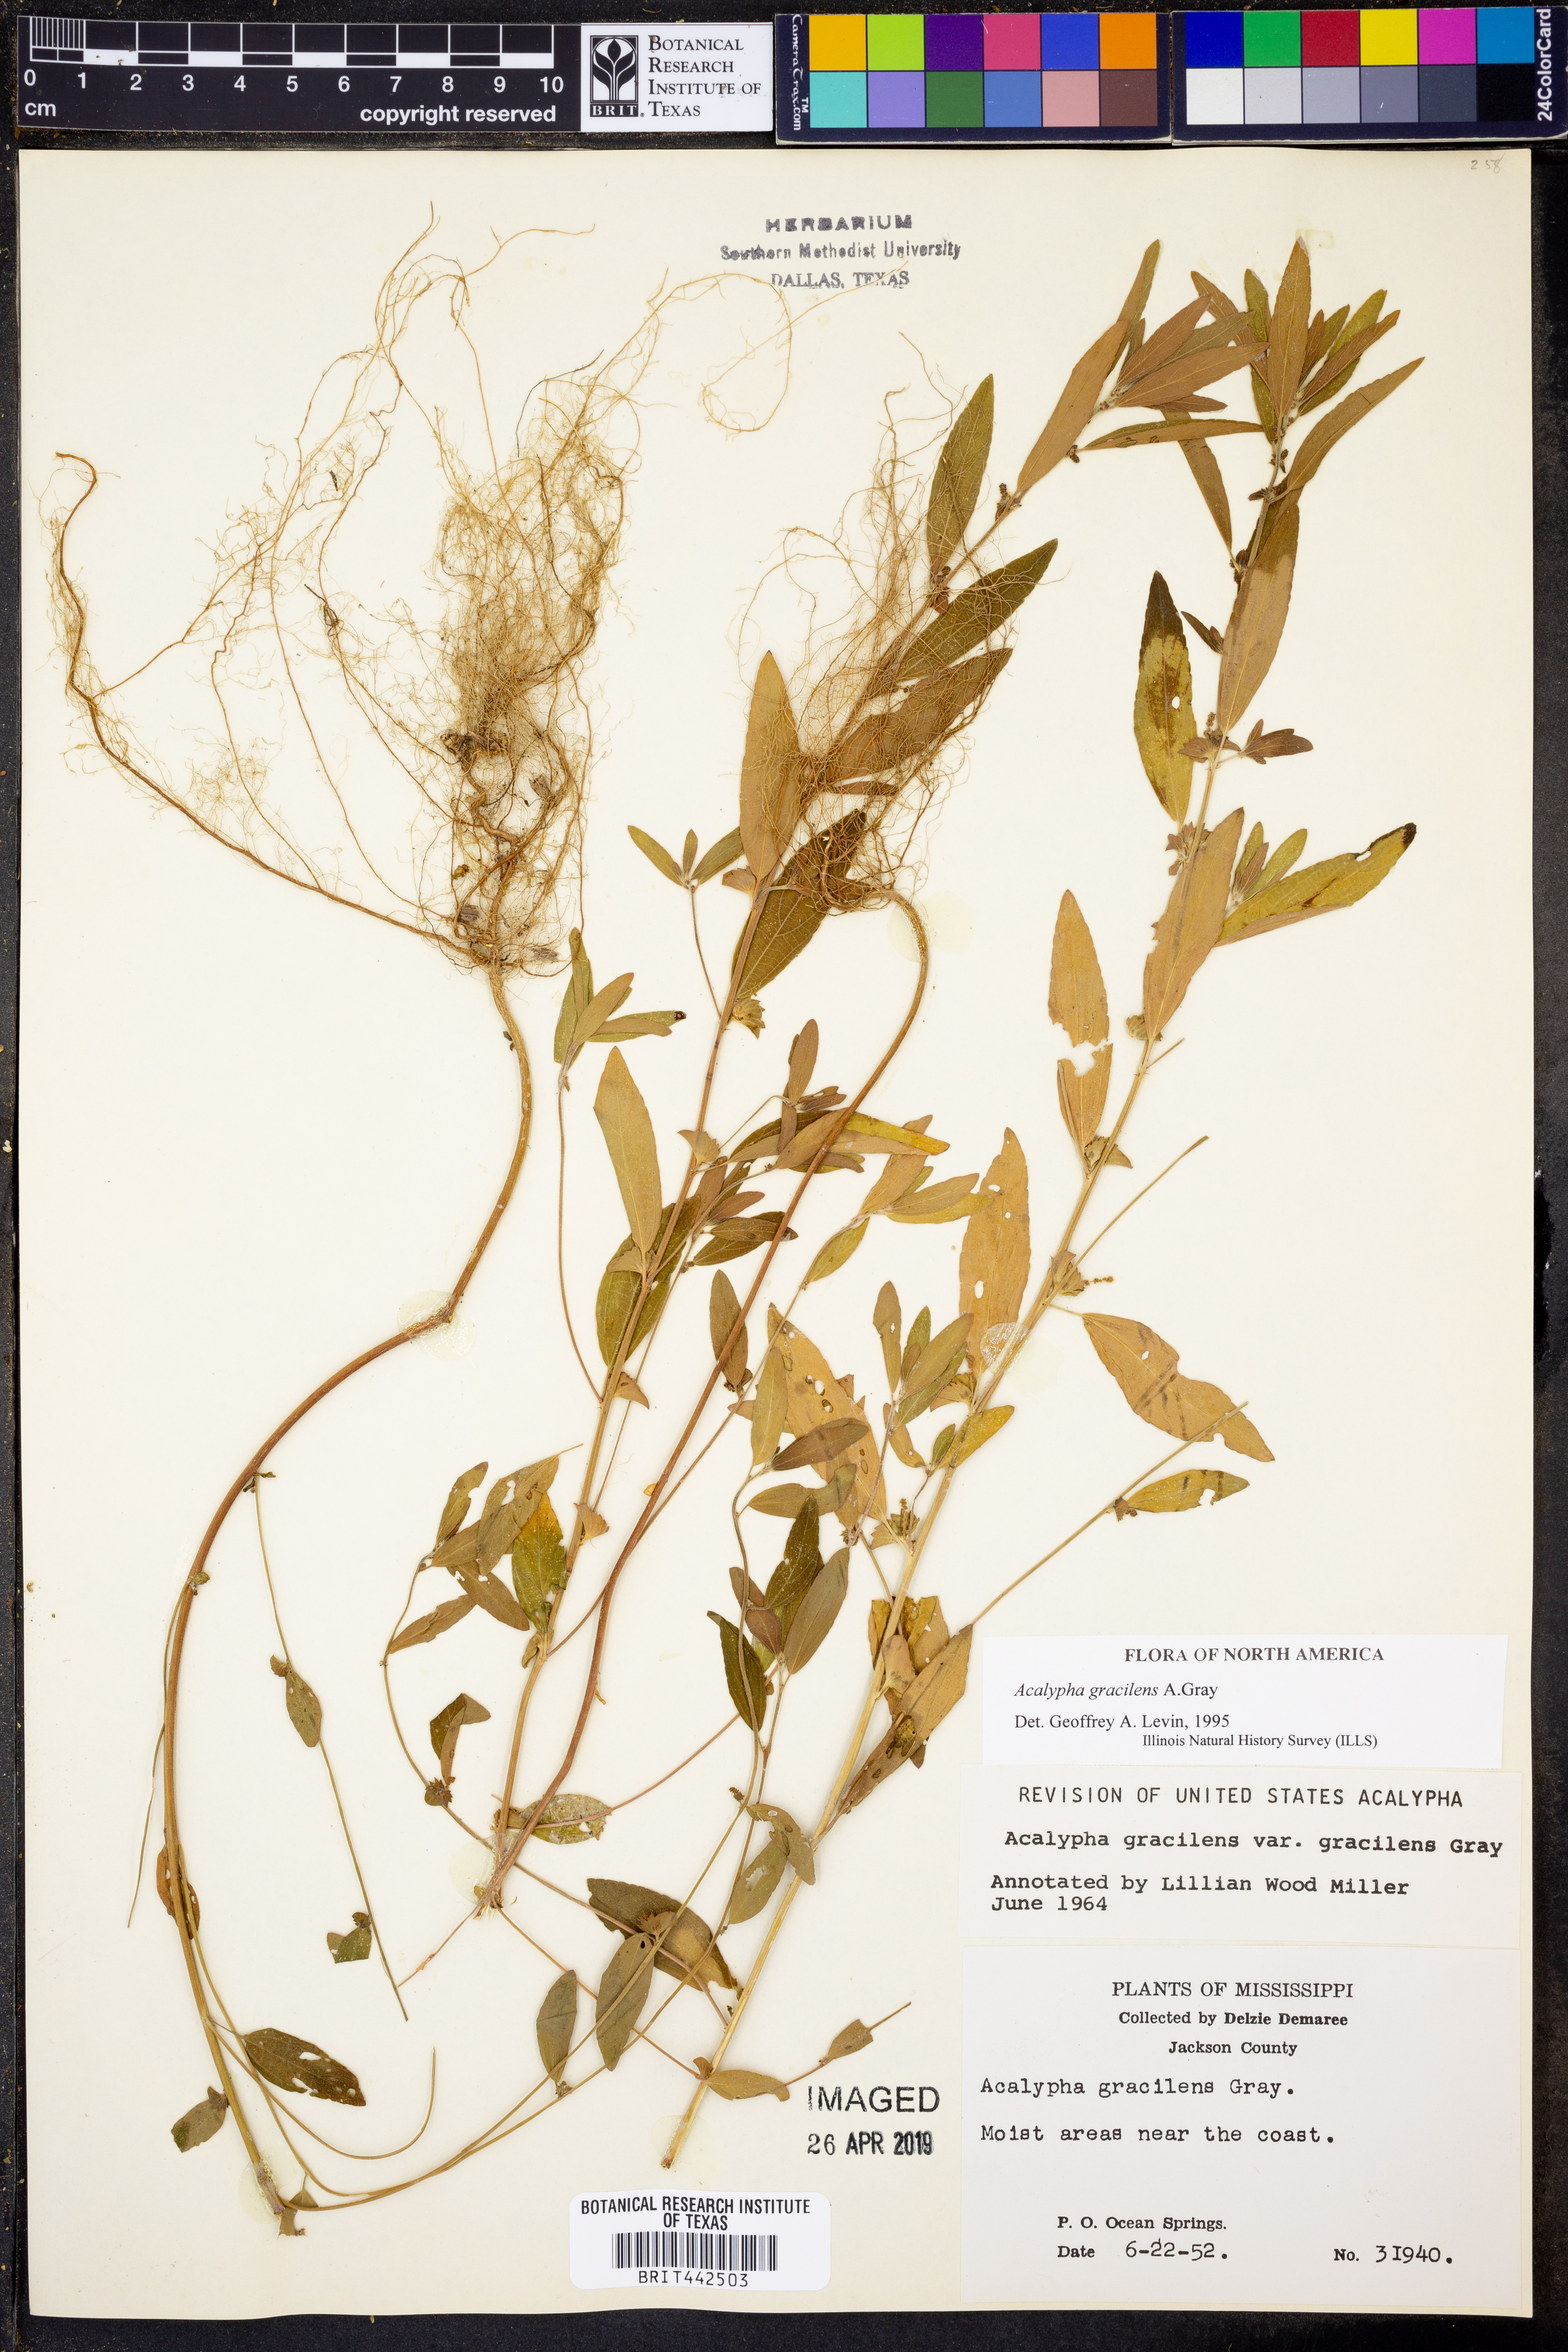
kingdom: Plantae
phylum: Tracheophyta
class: Magnoliopsida
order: Malpighiales
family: Euphorbiaceae
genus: Acalypha
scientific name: Acalypha gracilens
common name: Slender three-seeded mercury
